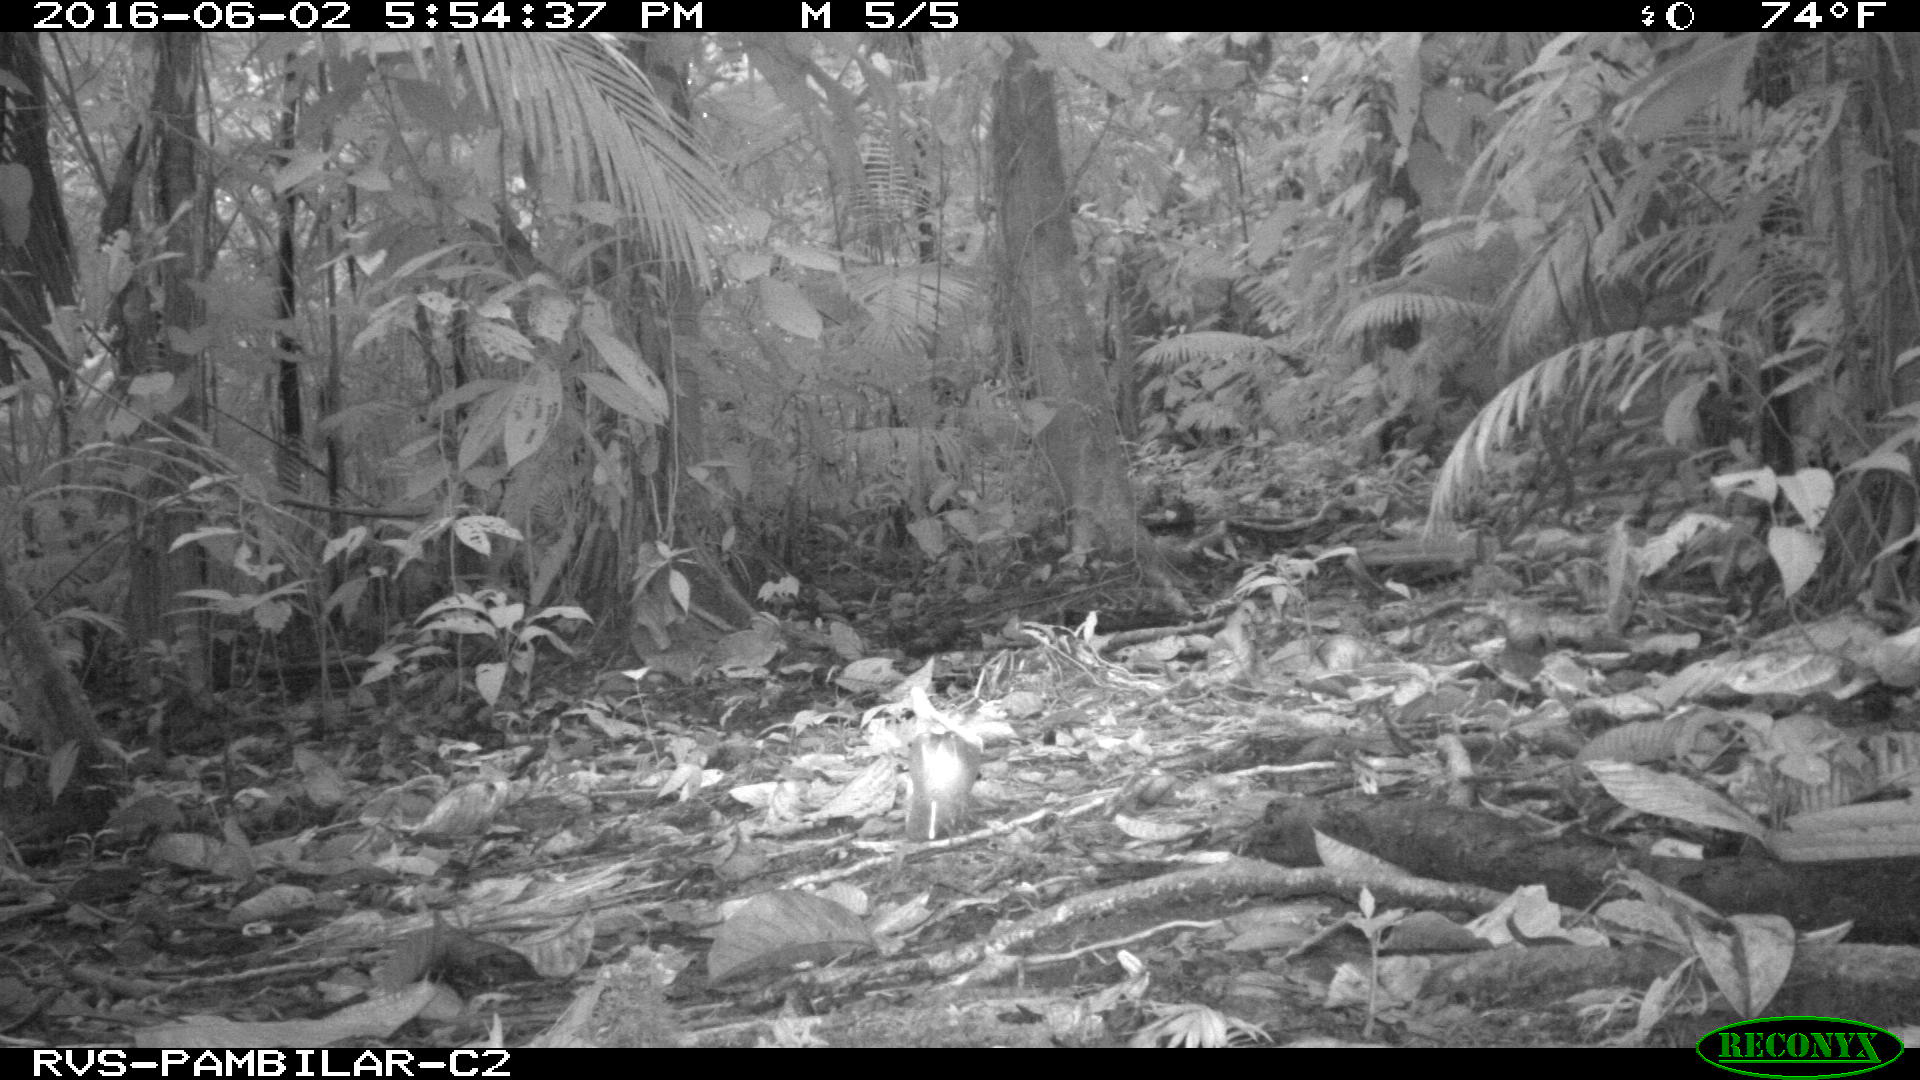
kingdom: Animalia
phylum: Chordata
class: Mammalia
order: Rodentia
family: Dasyproctidae
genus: Dasyprocta
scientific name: Dasyprocta punctata
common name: Central american agouti
